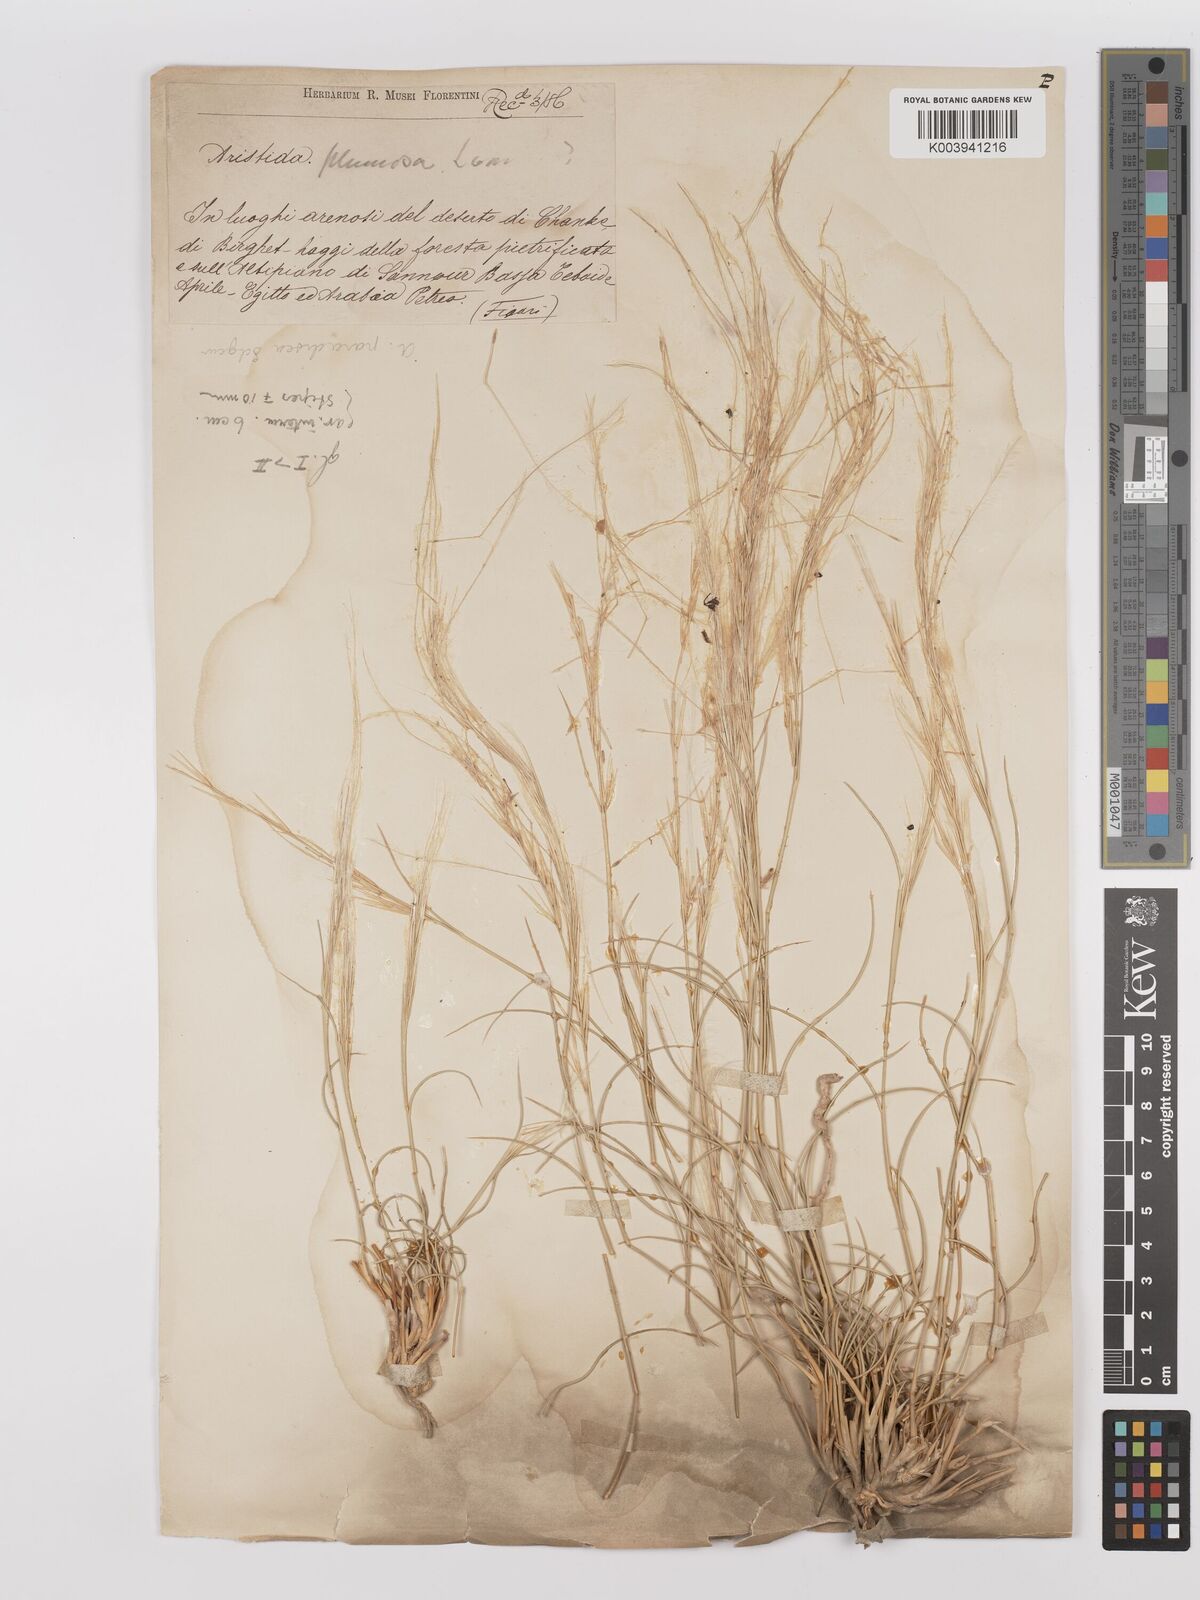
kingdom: Plantae
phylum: Tracheophyta
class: Liliopsida
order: Poales
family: Poaceae
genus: Stipagrostis
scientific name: Stipagrostis paradisea
